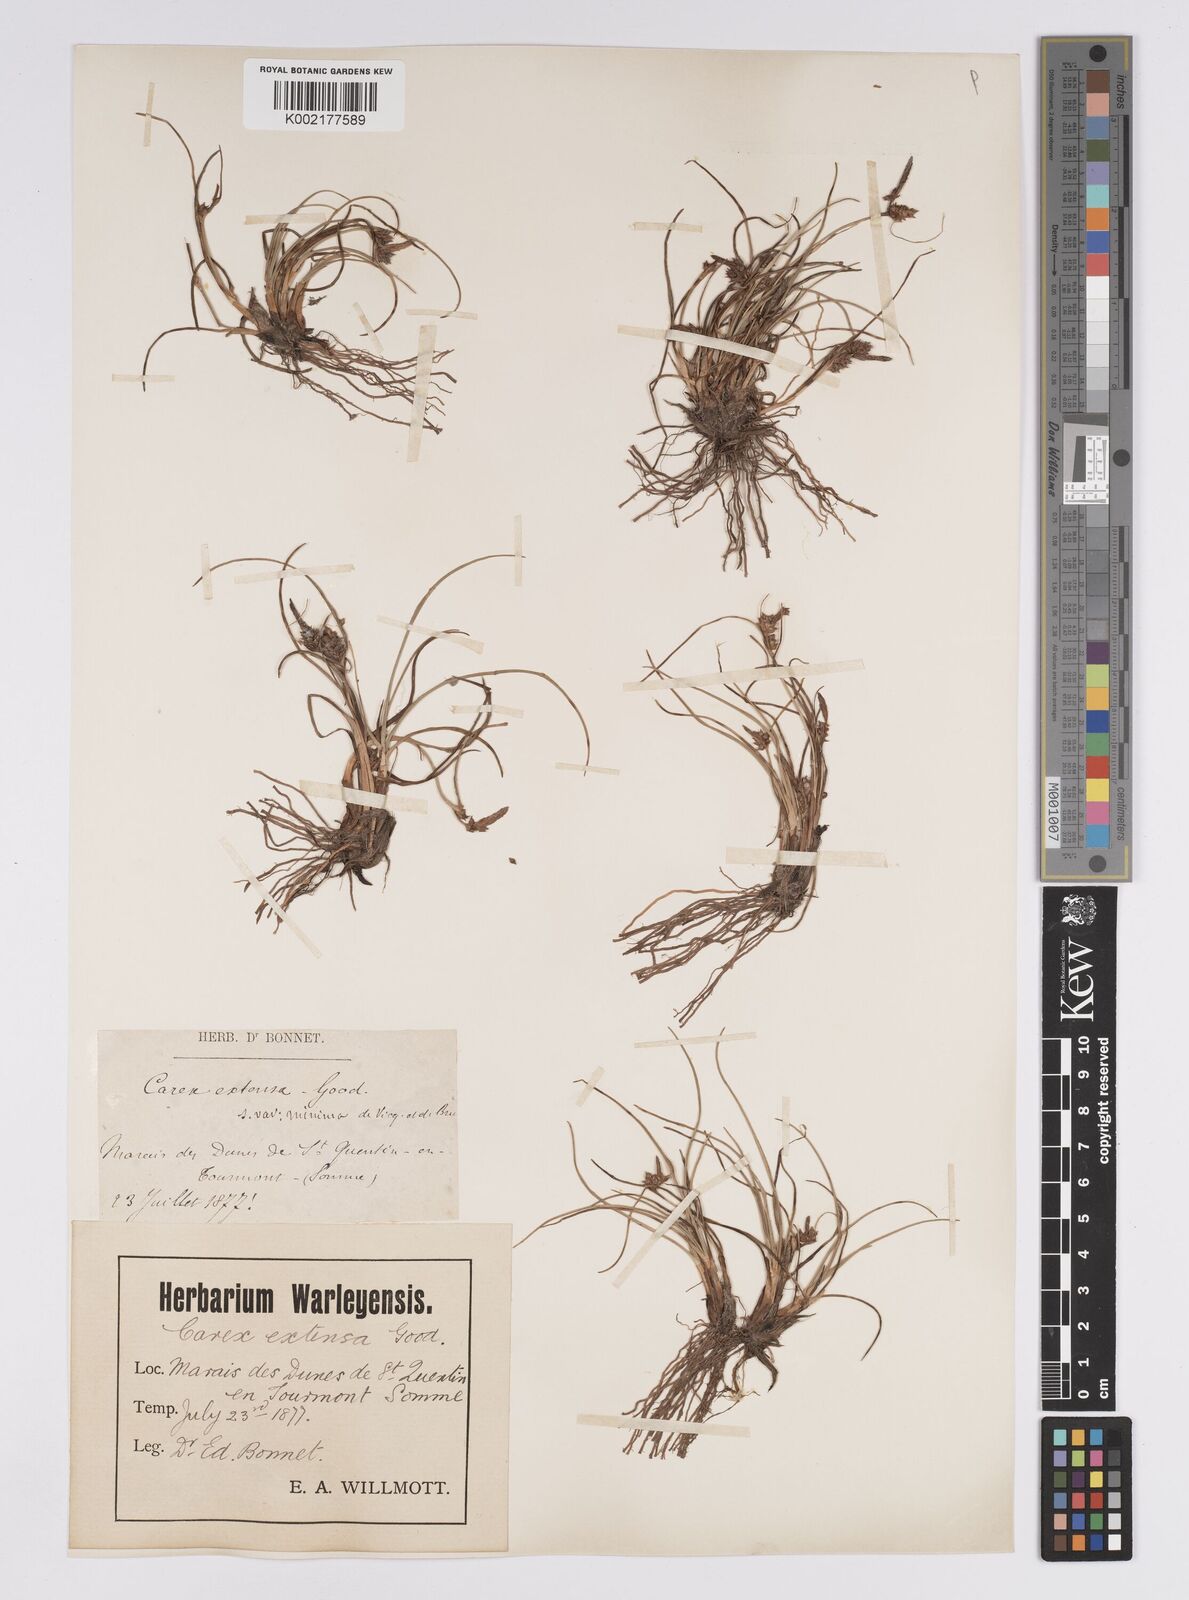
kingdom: Plantae
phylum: Tracheophyta
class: Liliopsida
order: Poales
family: Cyperaceae
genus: Carex
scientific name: Carex extensa
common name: Long-bracted sedge
